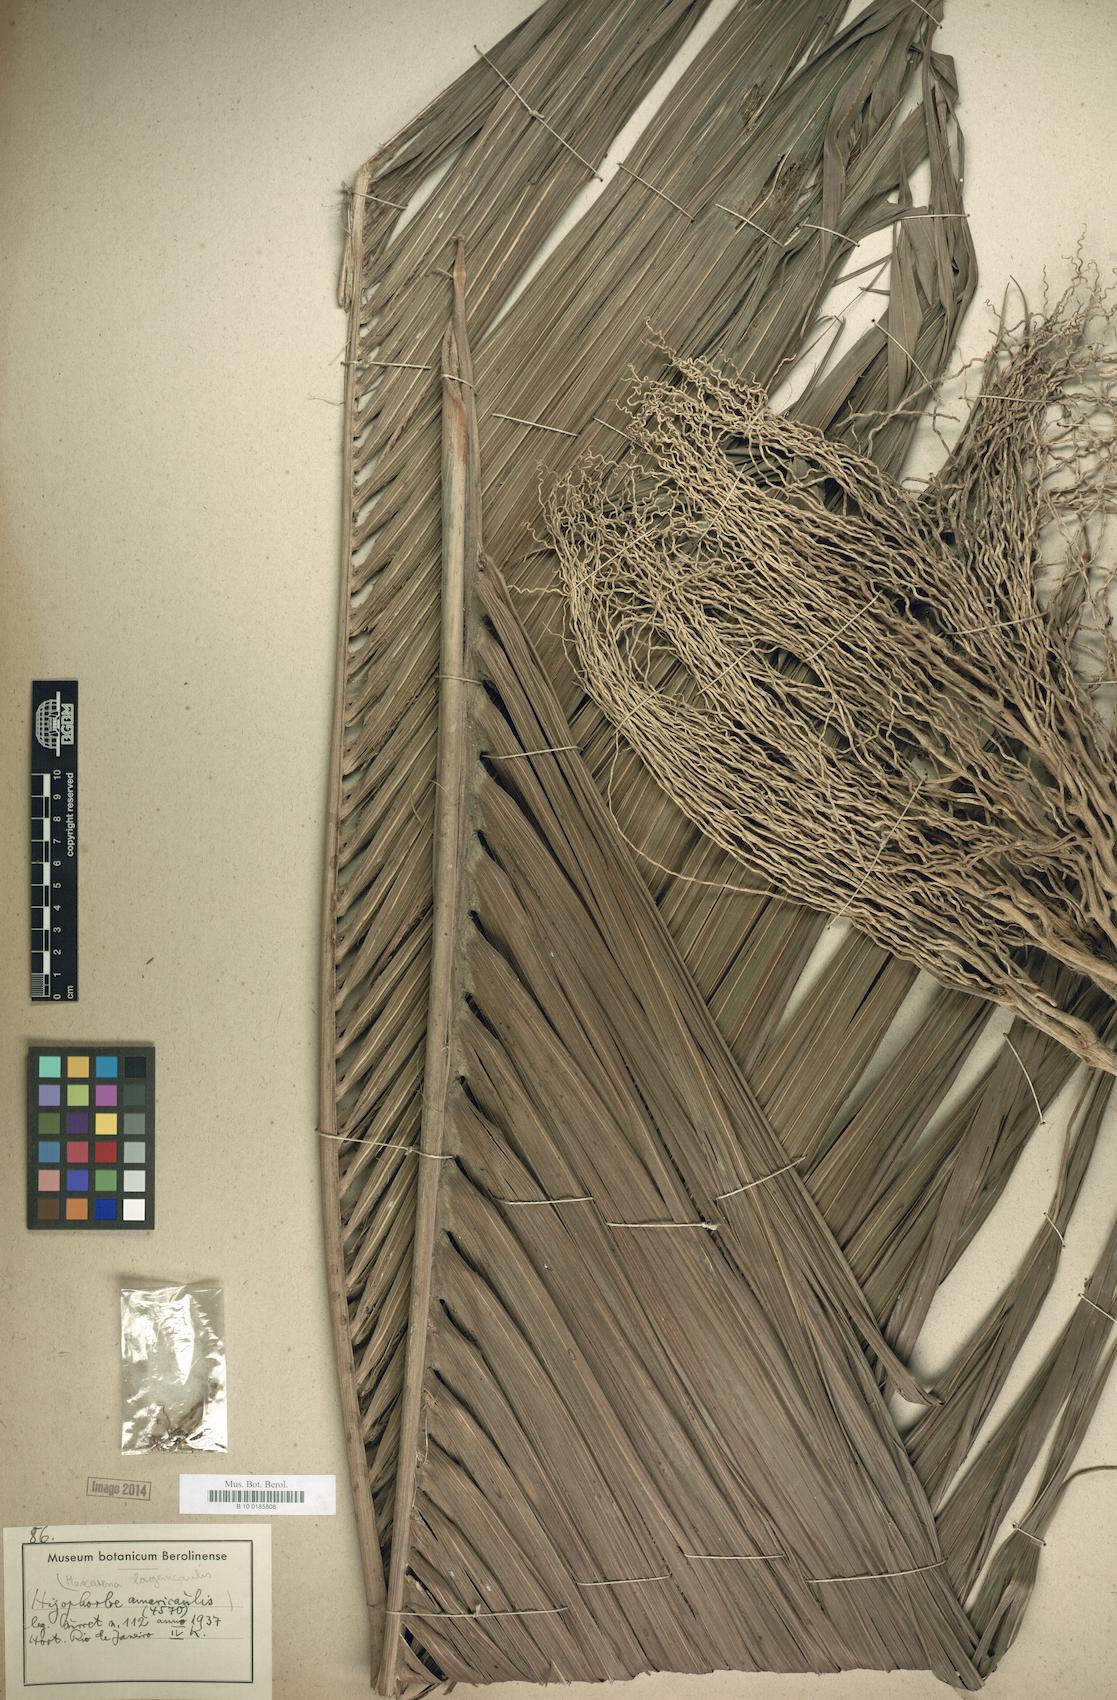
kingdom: Plantae
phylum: Tracheophyta
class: Liliopsida
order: Arecales
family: Arecaceae
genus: Hyophorbe
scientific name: Hyophorbe lagenicaulis
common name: Bottle palm
